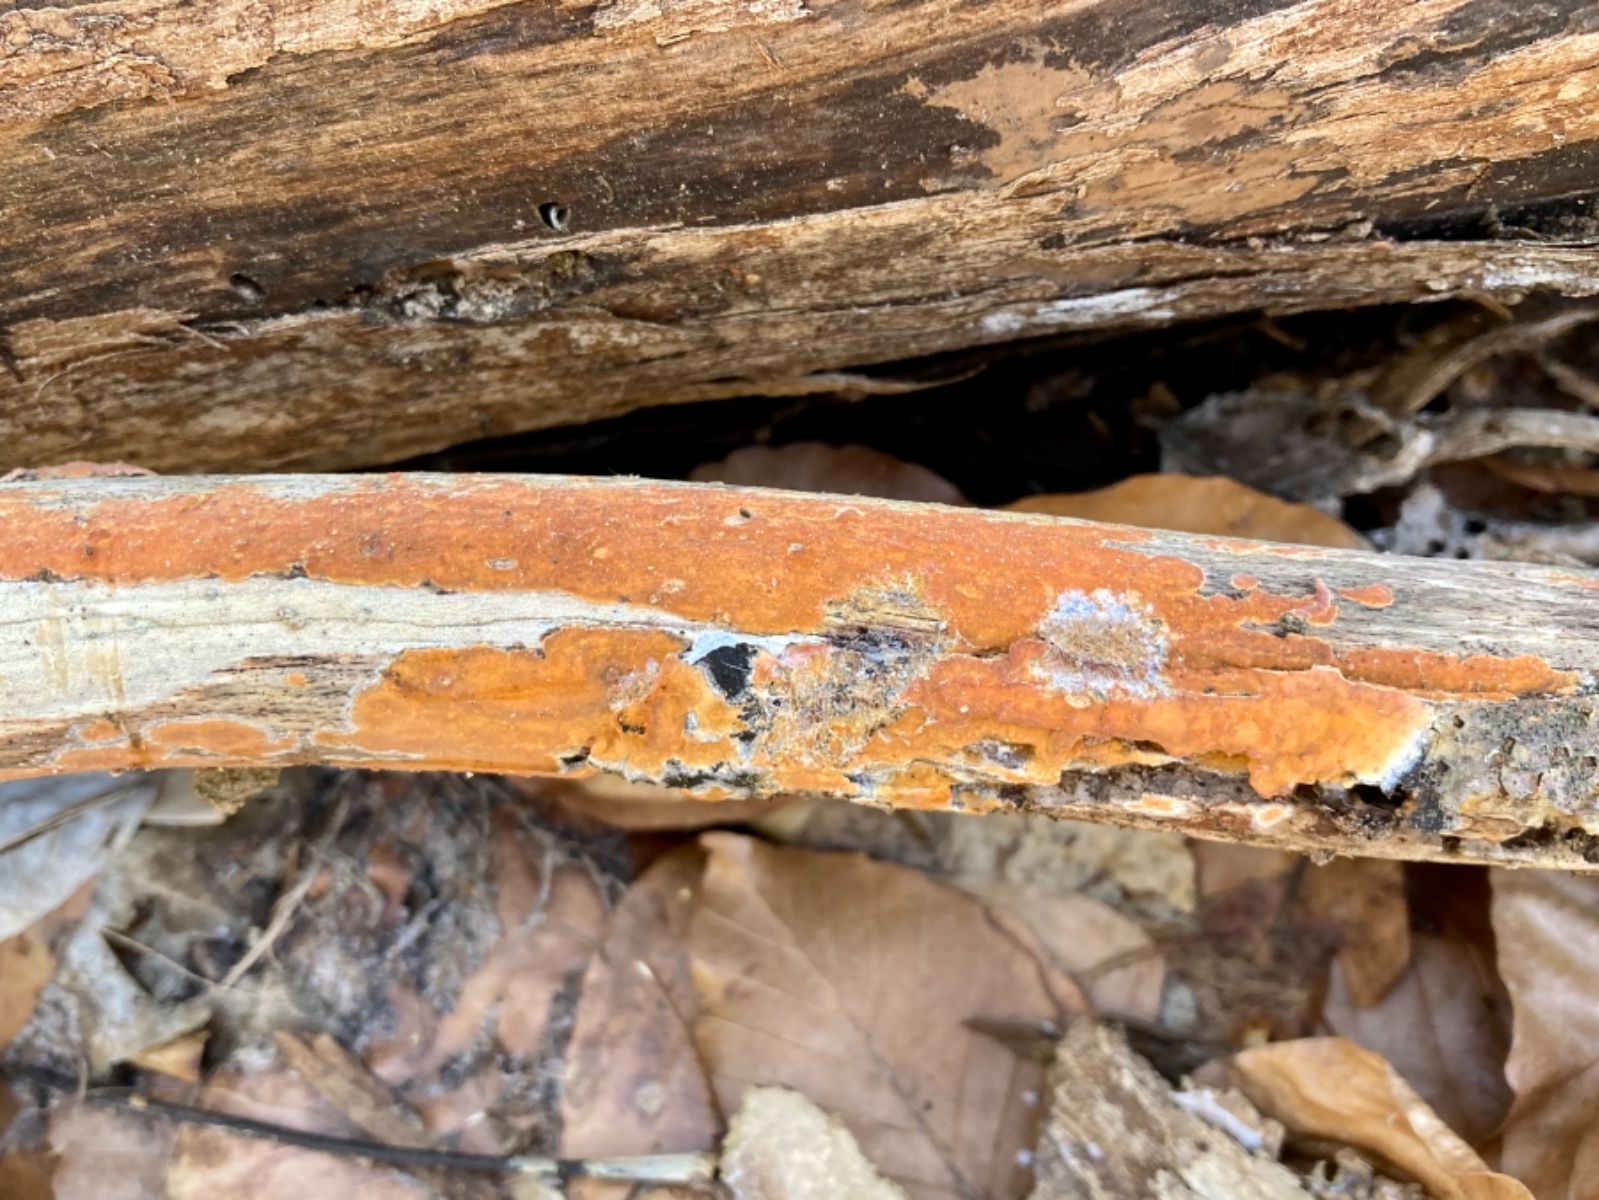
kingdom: Fungi
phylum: Basidiomycota
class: Agaricomycetes
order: Russulales
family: Peniophoraceae
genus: Peniophora
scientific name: Peniophora incarnata
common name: laksefarvet voksskind
